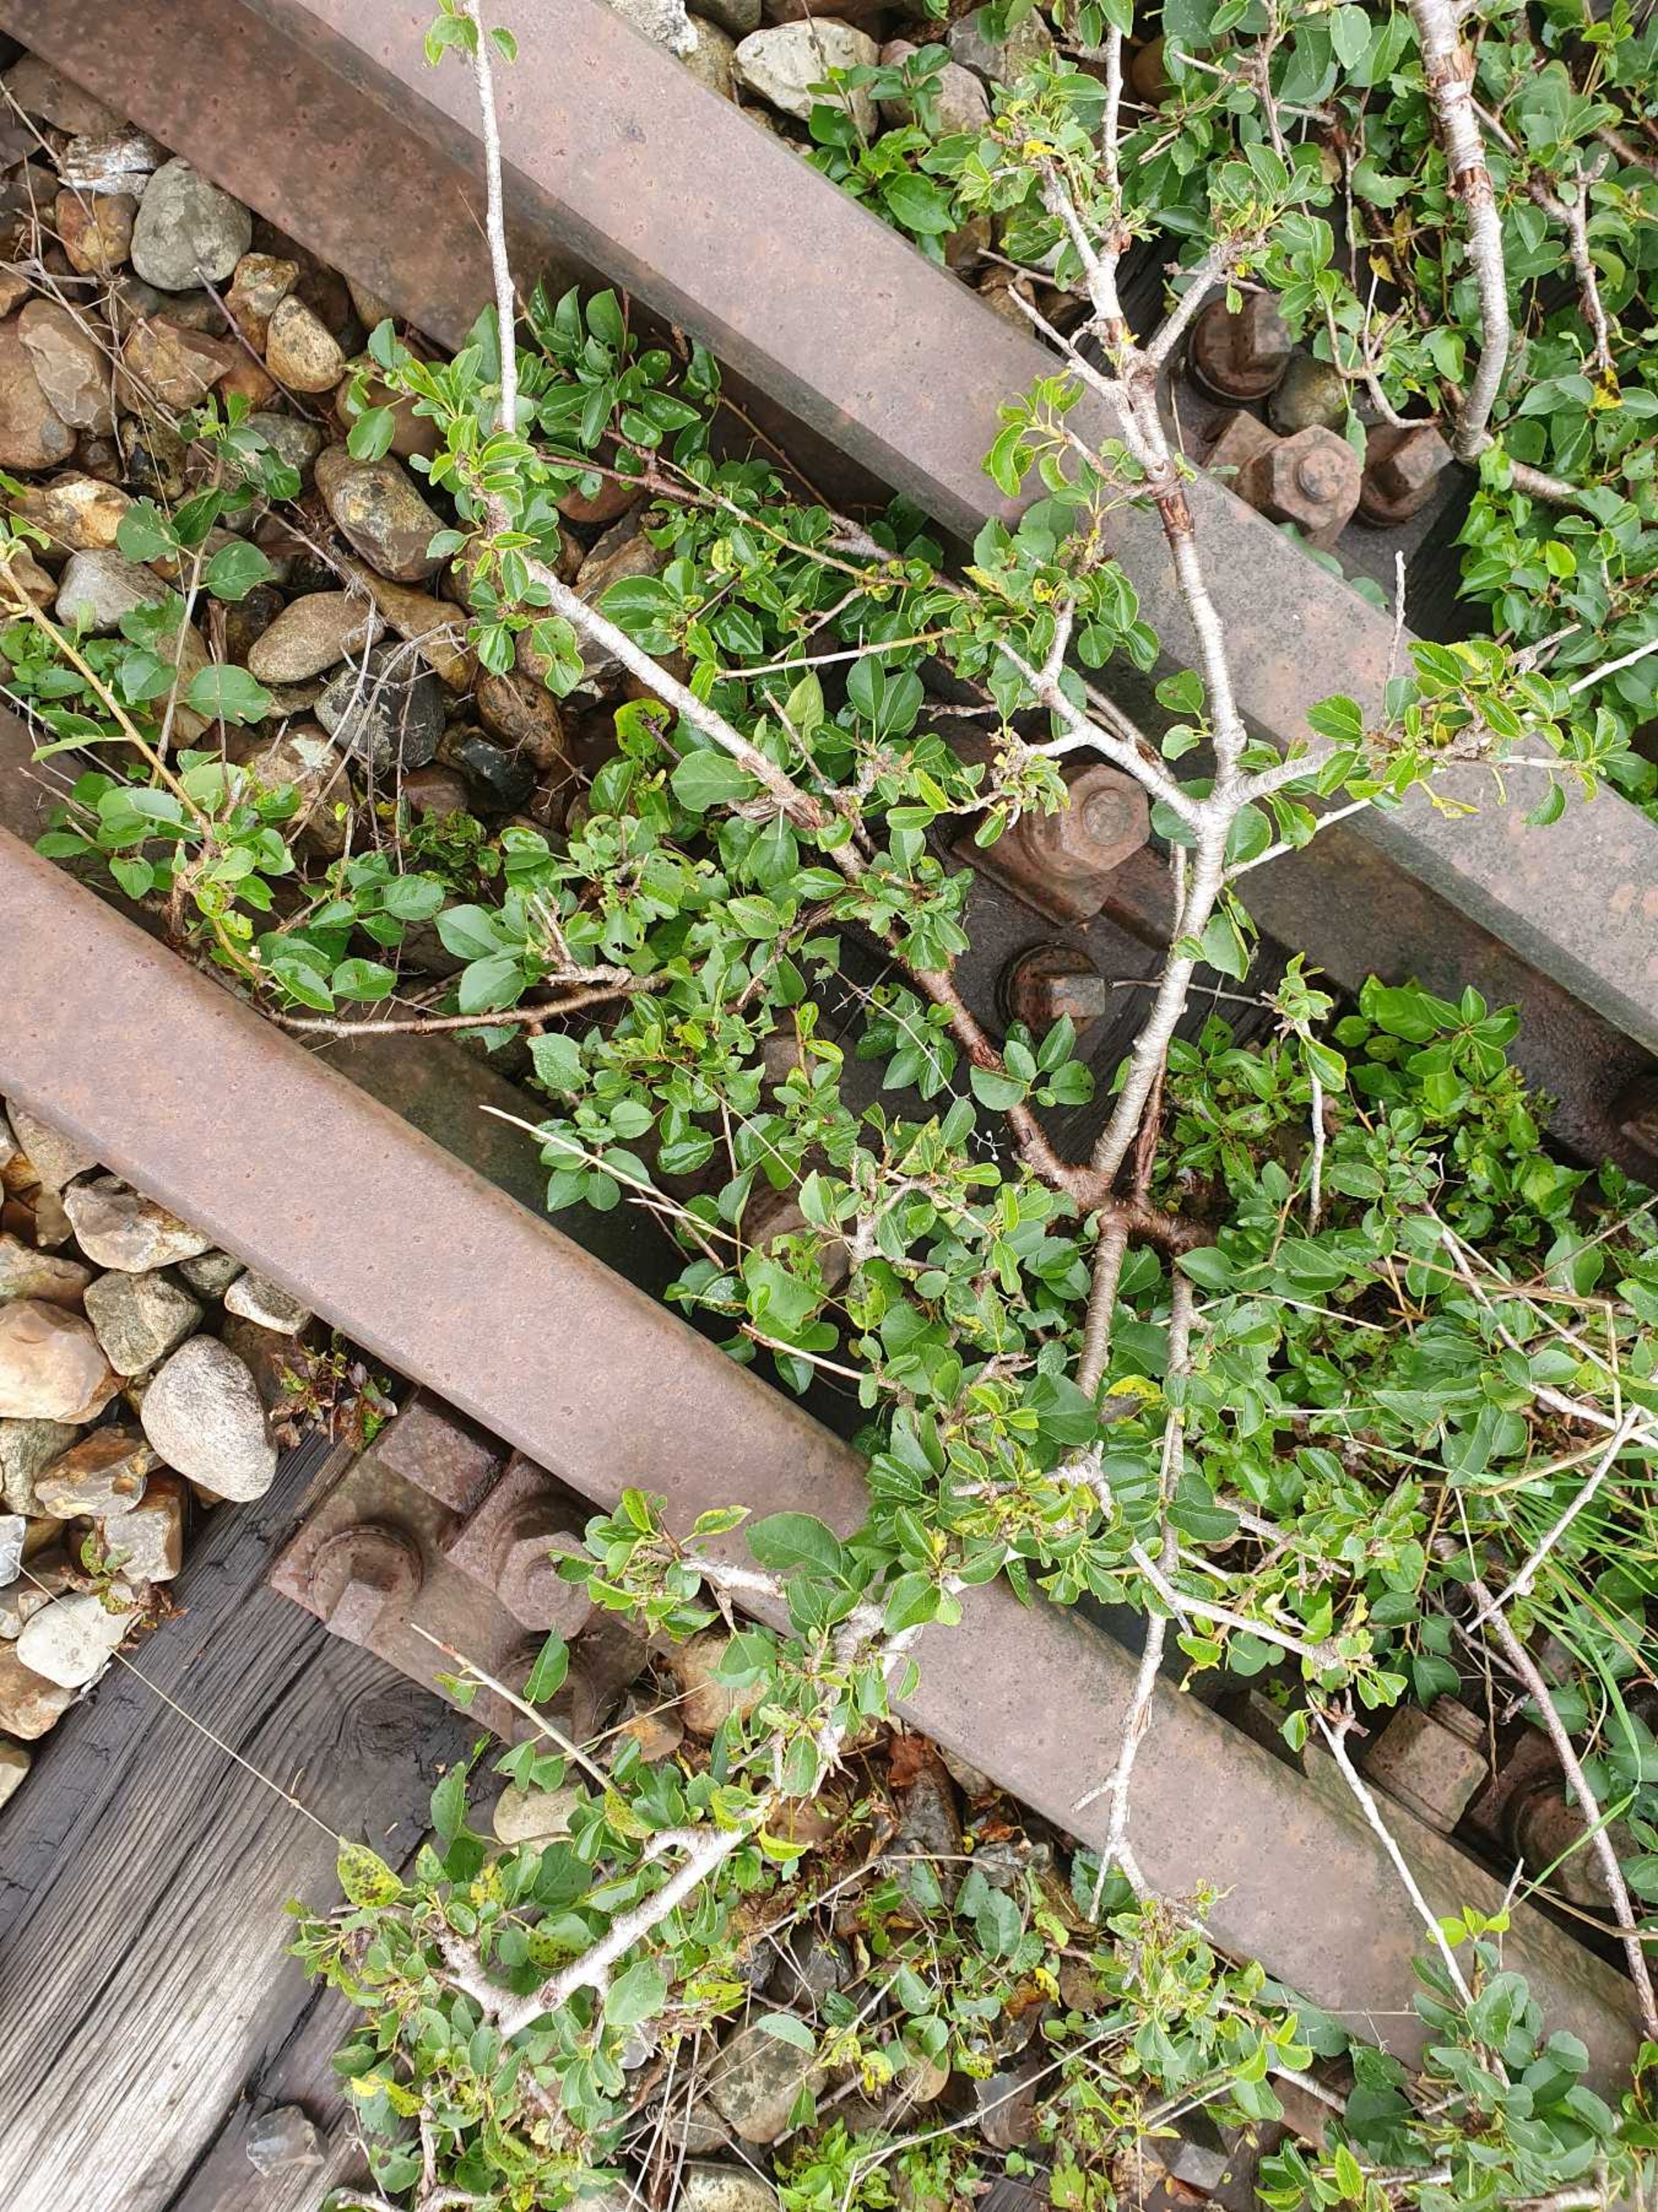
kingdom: Plantae
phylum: Tracheophyta
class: Magnoliopsida
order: Rosales
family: Rhamnaceae
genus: Rhamnus
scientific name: Rhamnus cathartica
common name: Vrietorn
